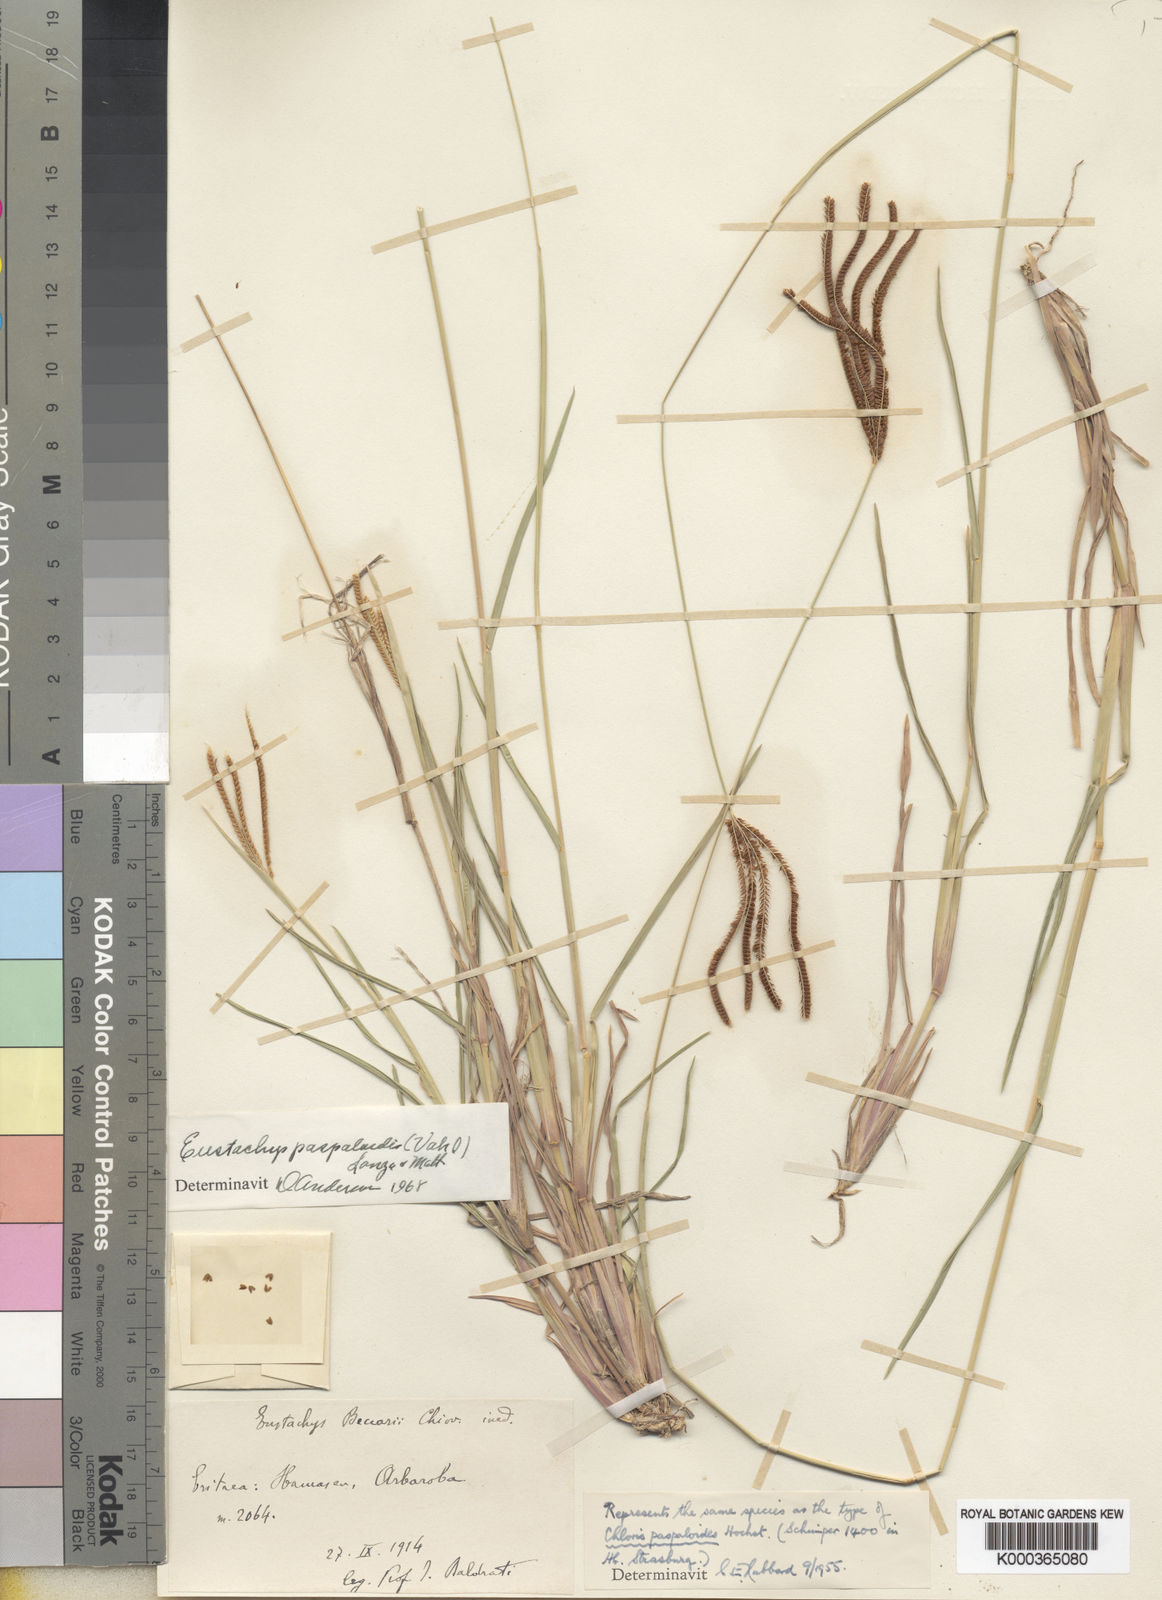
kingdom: Plantae
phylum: Tracheophyta
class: Liliopsida
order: Poales
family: Poaceae
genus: Eustachys
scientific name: Eustachys paspaloides
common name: Caribbean fingergrass
